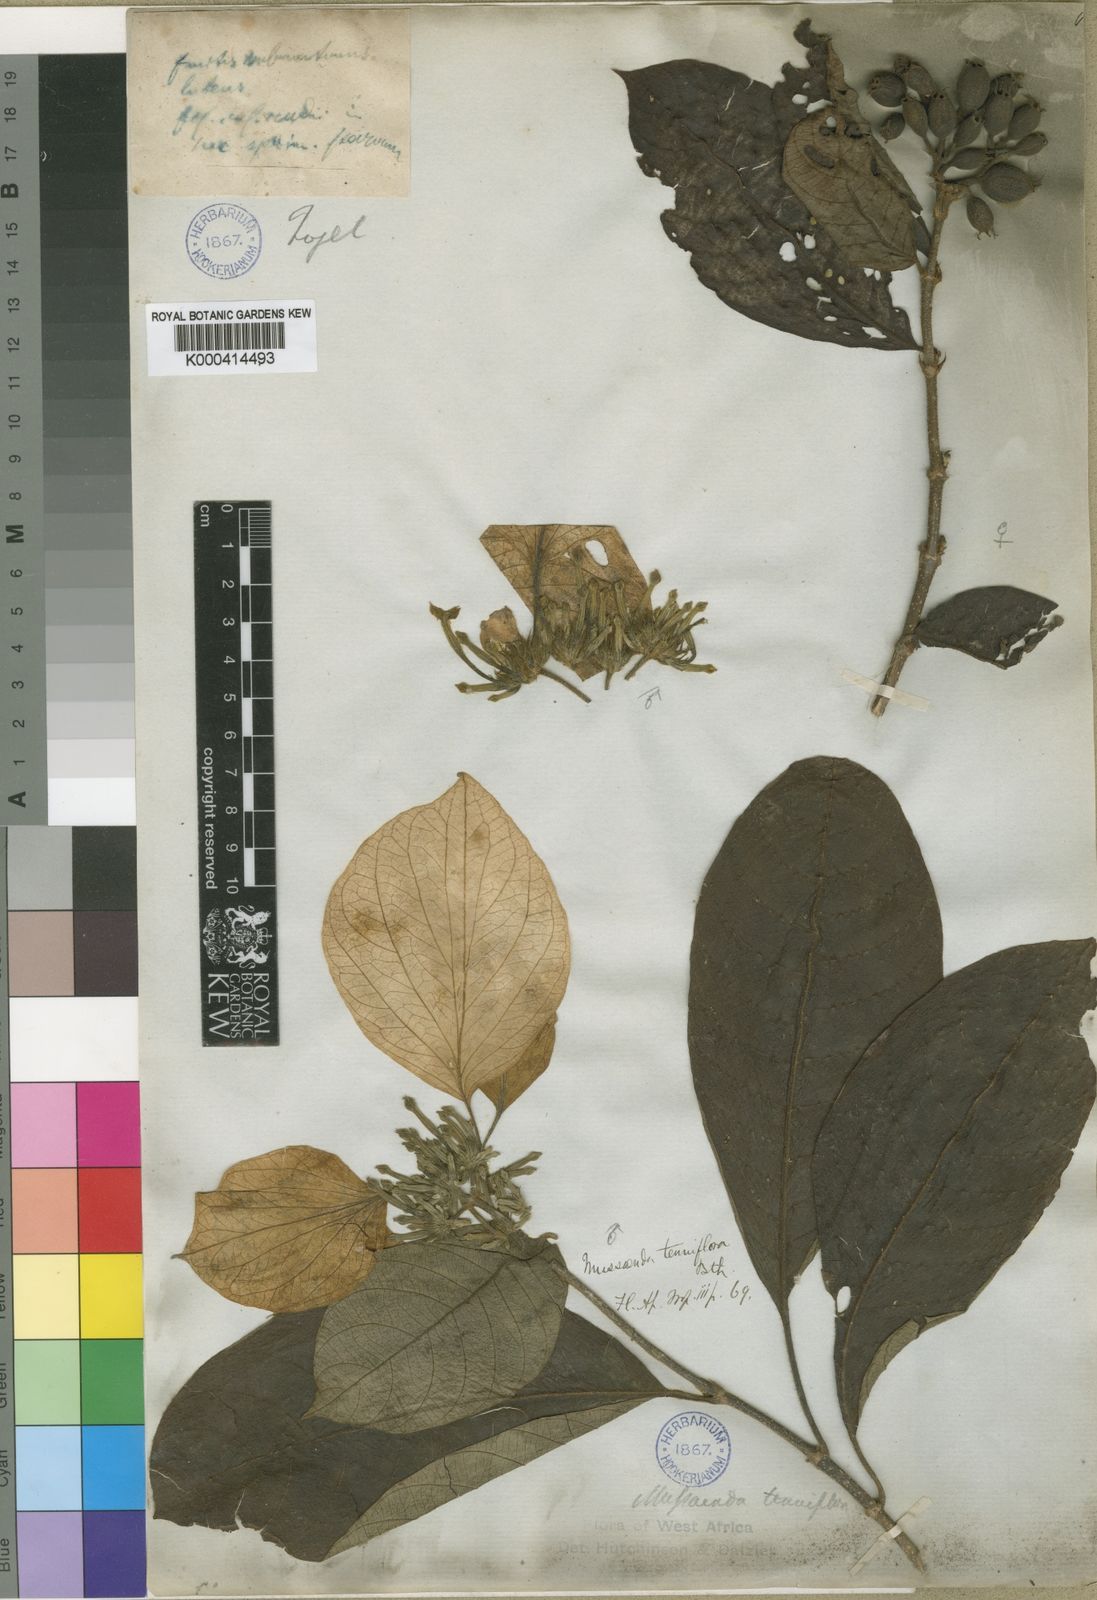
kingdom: Plantae
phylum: Tracheophyta
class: Magnoliopsida
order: Gentianales
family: Rubiaceae
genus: Mussaenda
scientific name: Mussaenda tenuiflora
